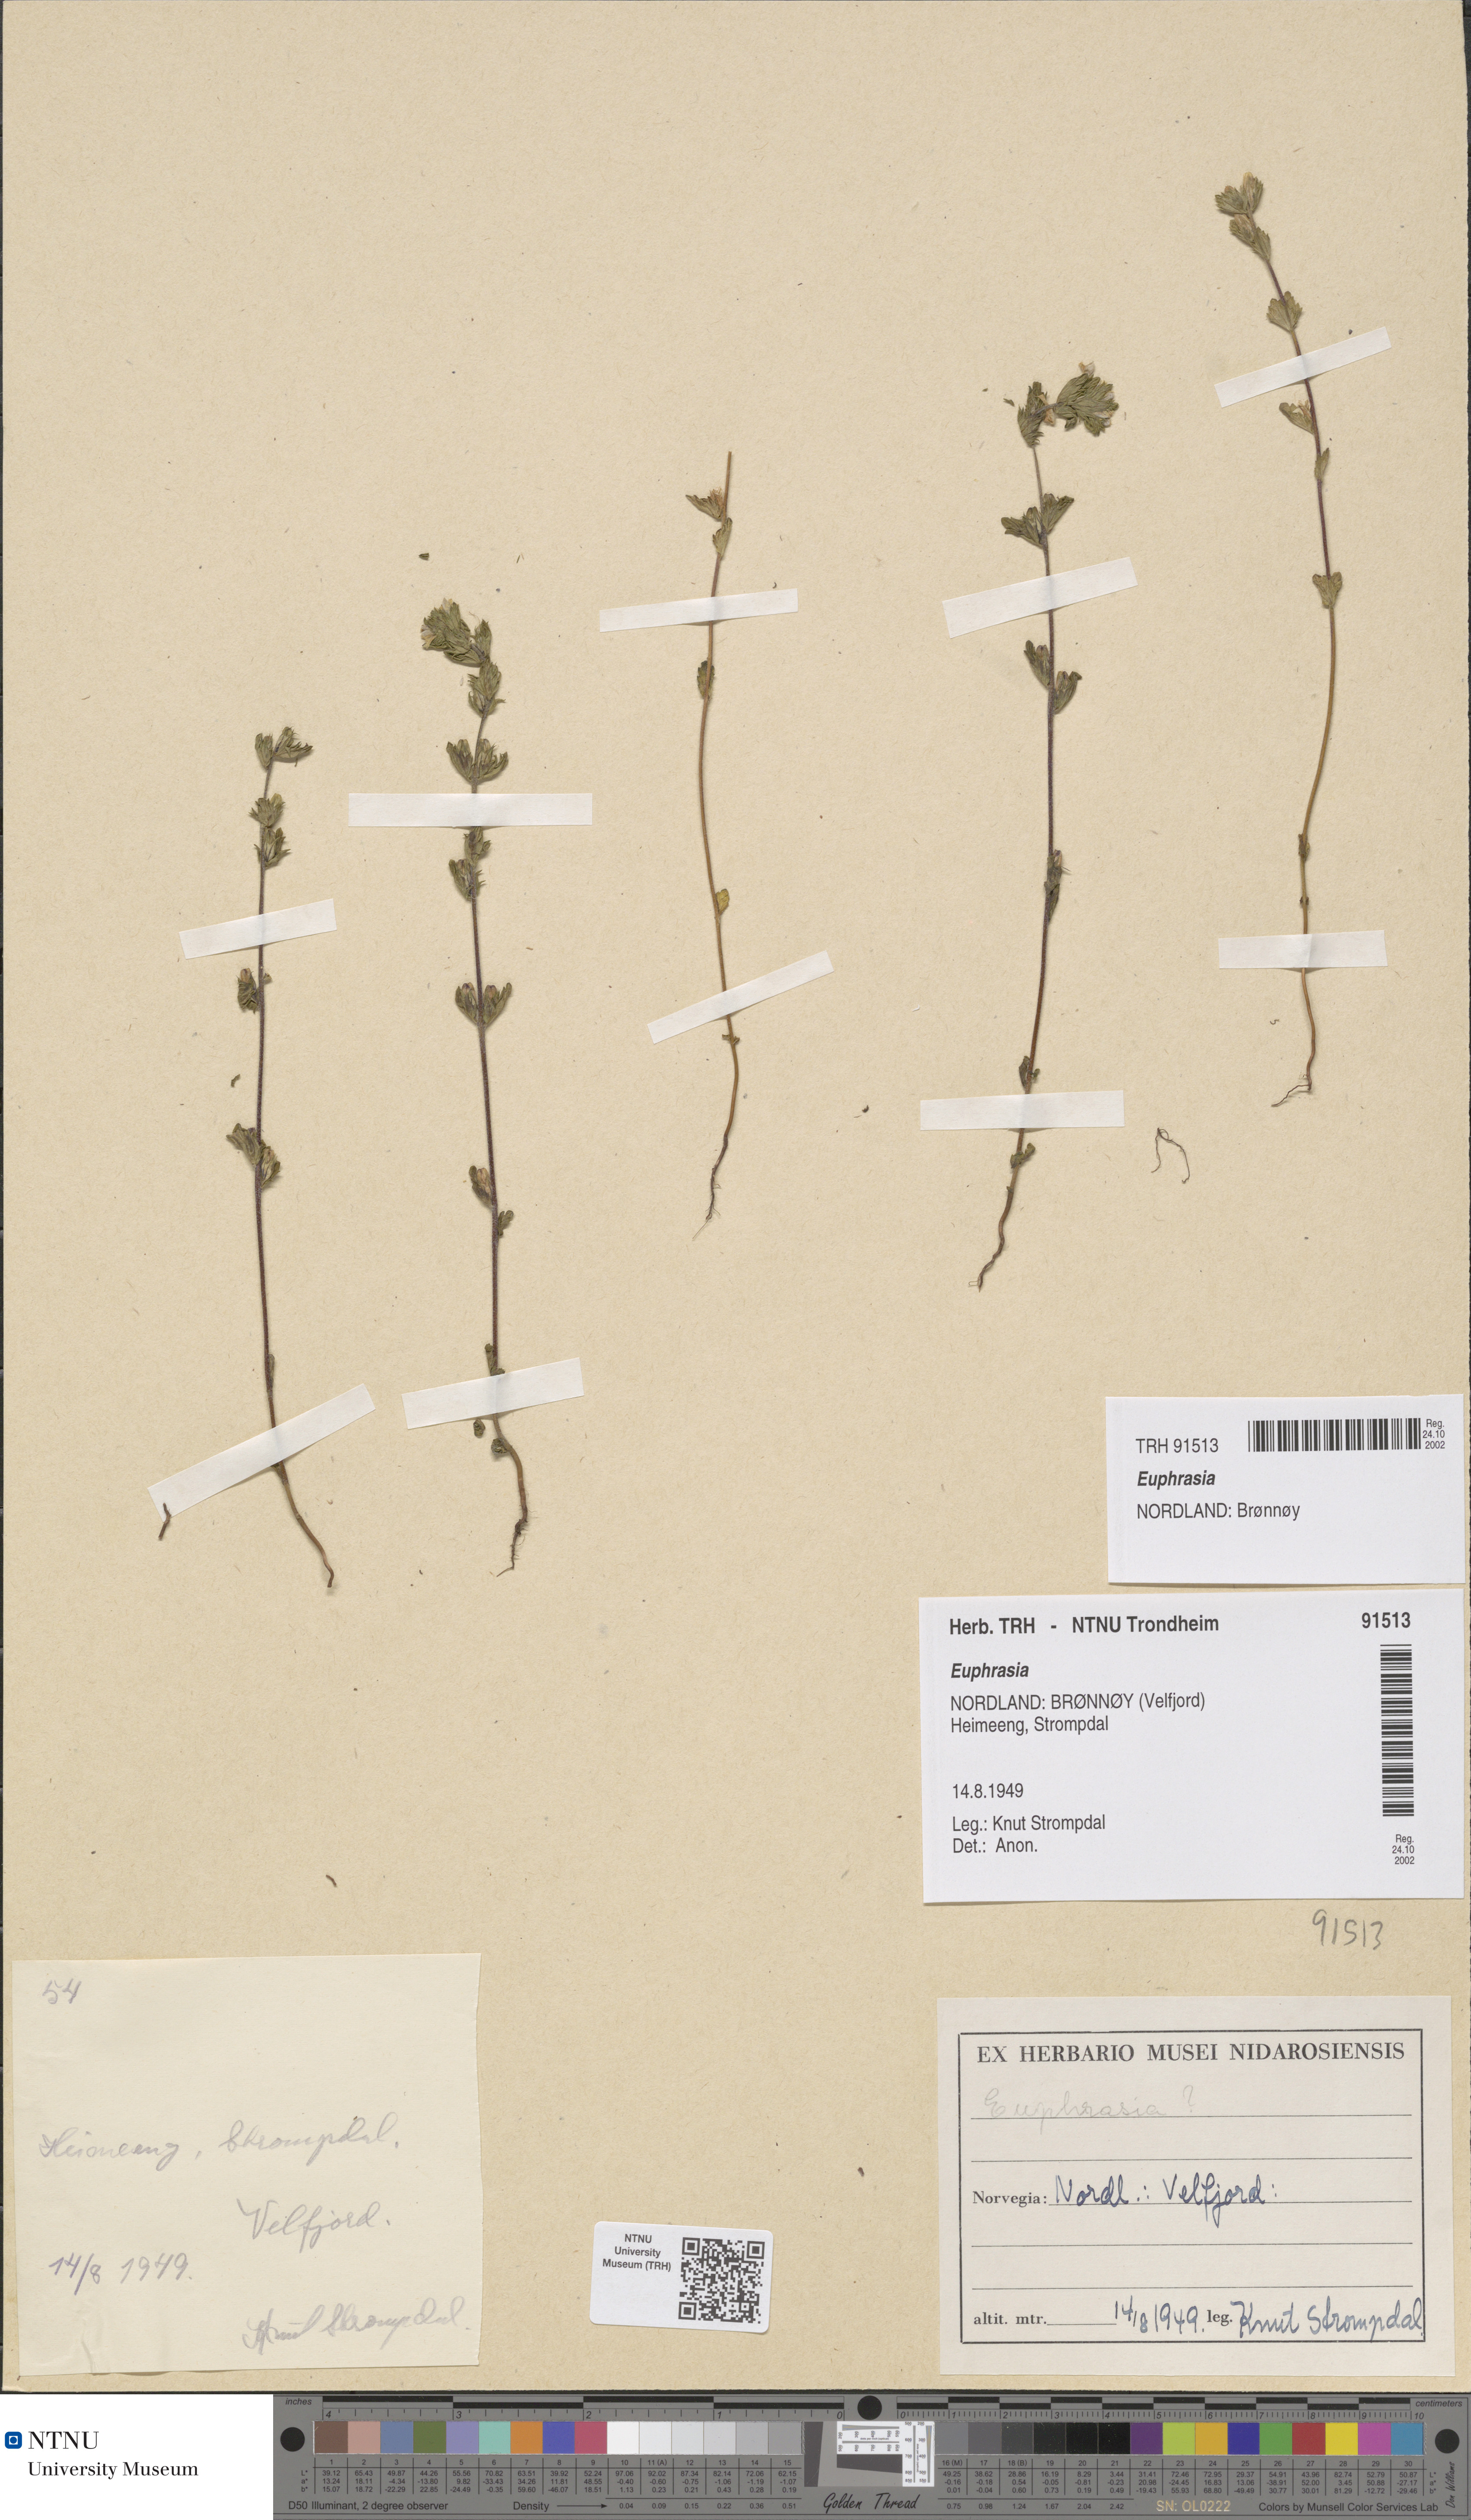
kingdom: Plantae
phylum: Tracheophyta
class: Magnoliopsida
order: Lamiales
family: Orobanchaceae
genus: Euphrasia
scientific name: Euphrasia
